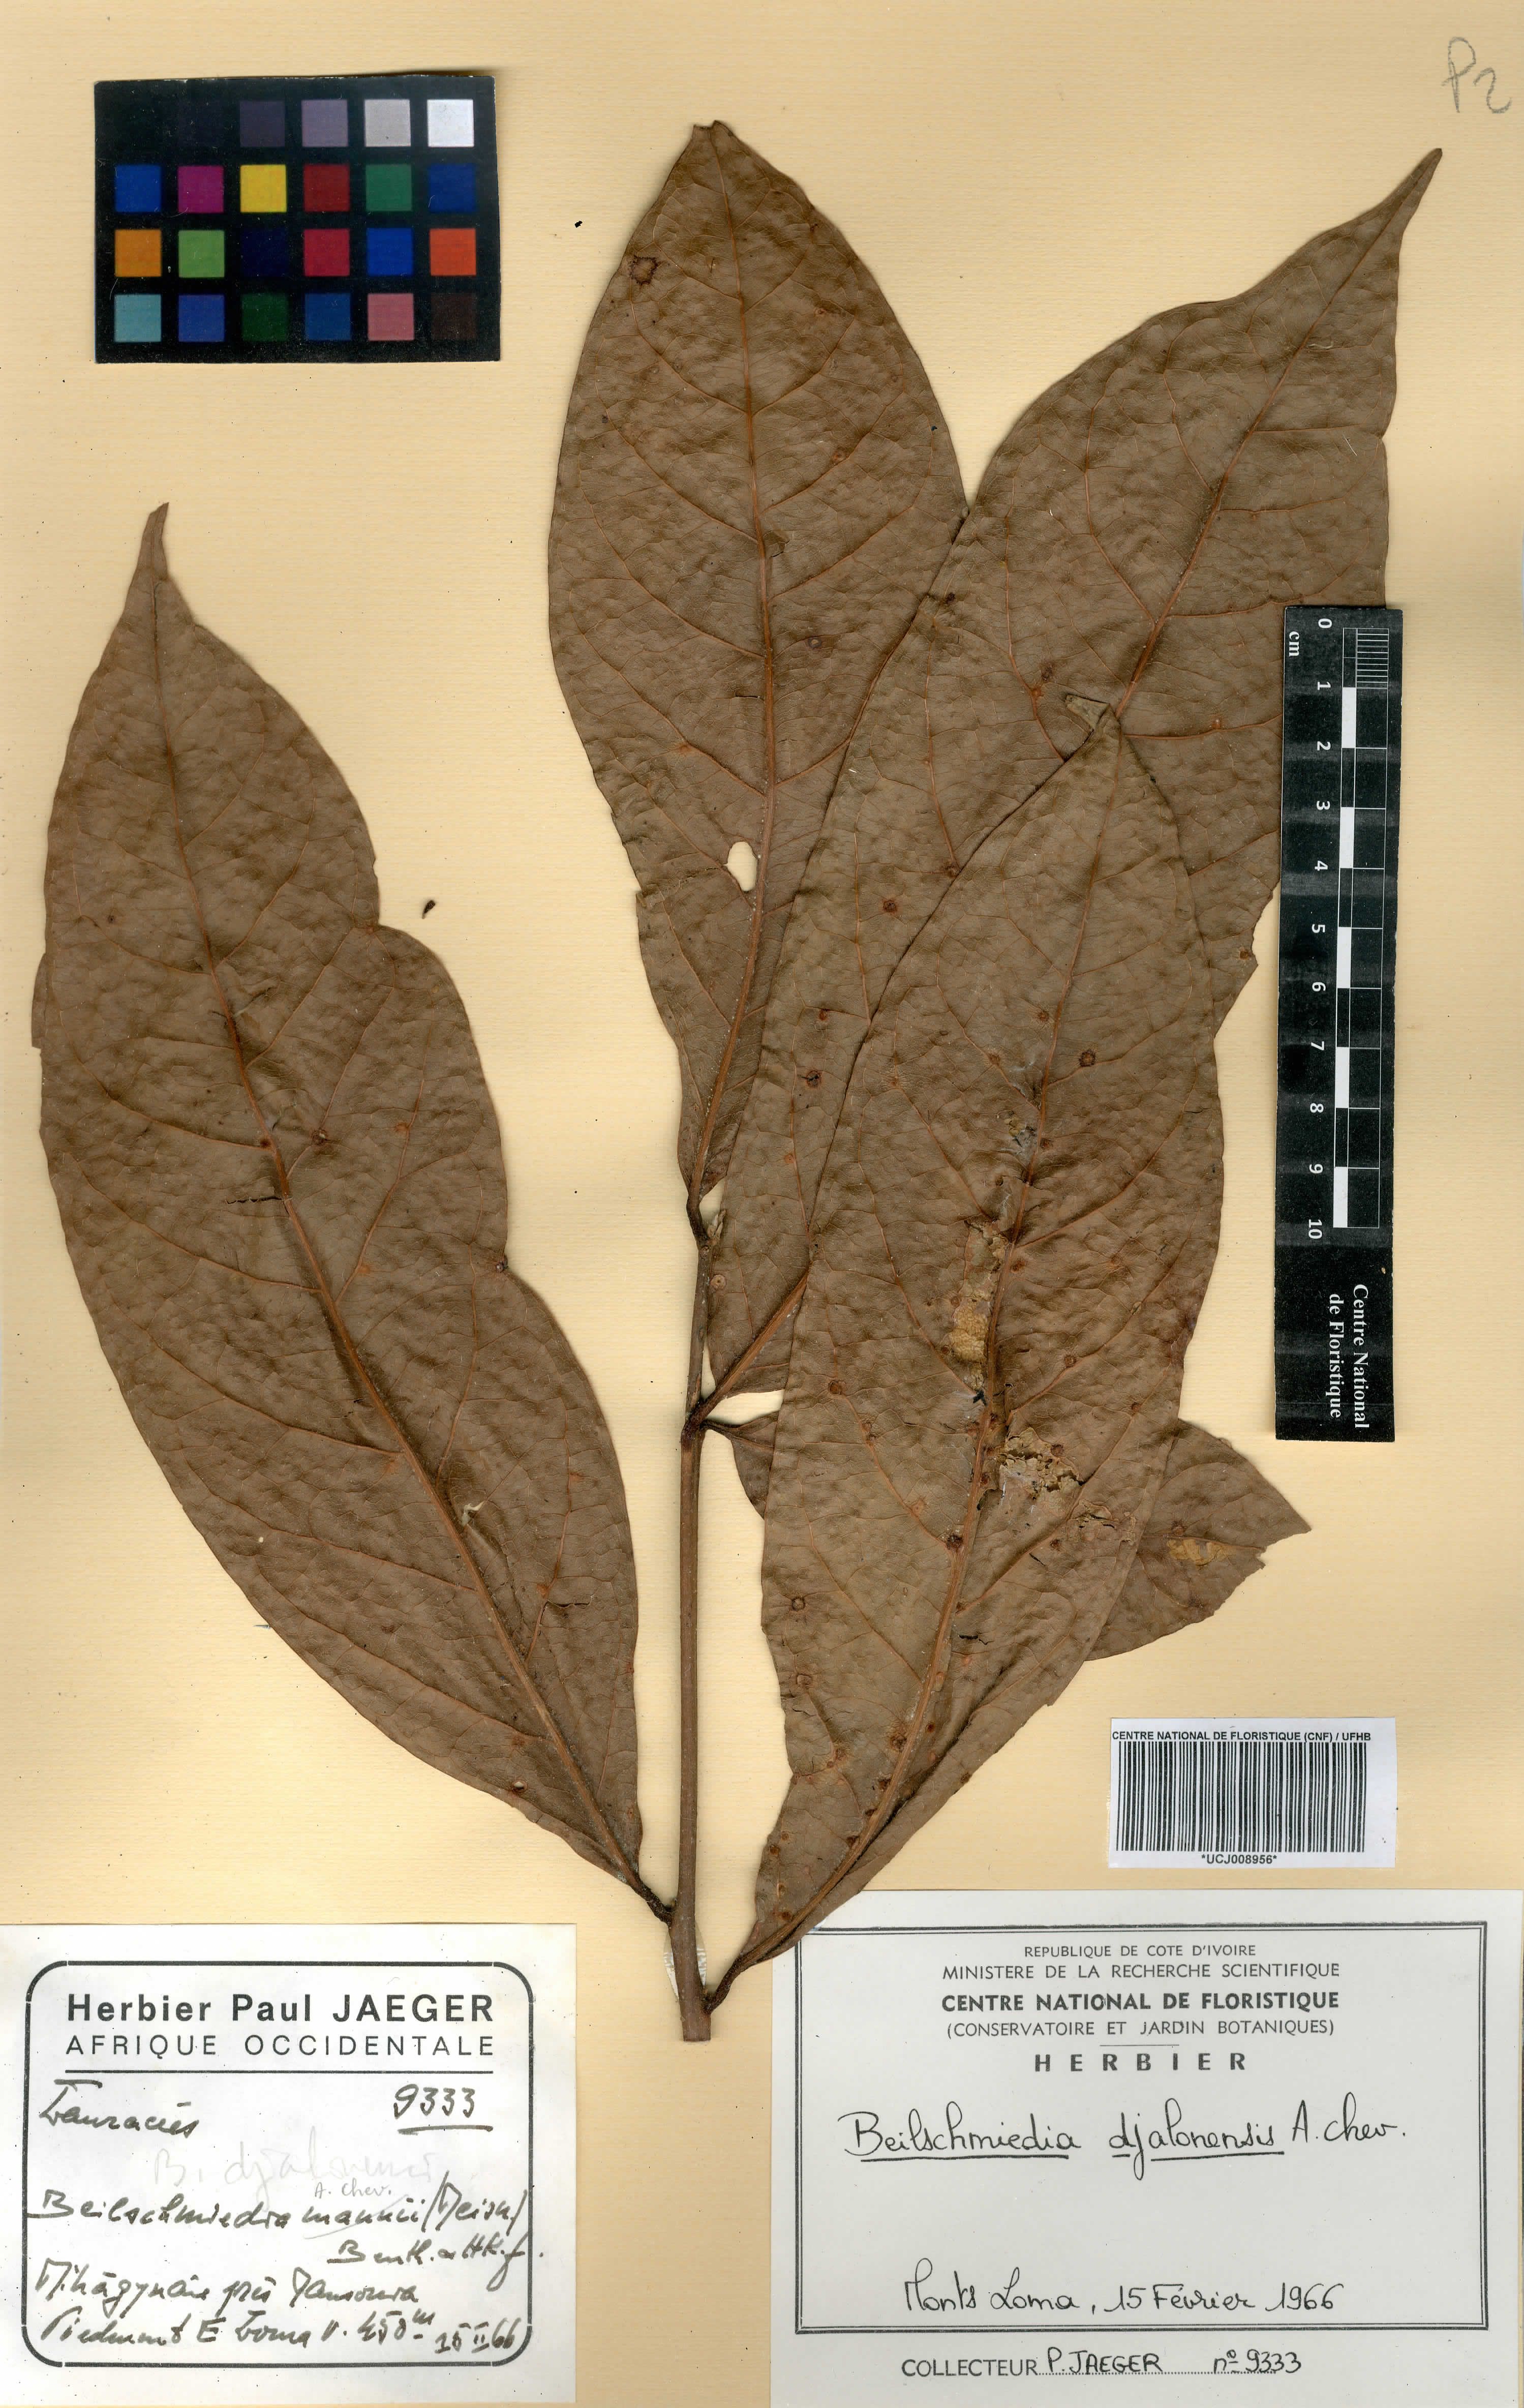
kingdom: Plantae
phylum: Tracheophyta
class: Magnoliopsida
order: Laurales
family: Lauraceae
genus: Beilschmiedia
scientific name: Beilschmiedia djalonensis
